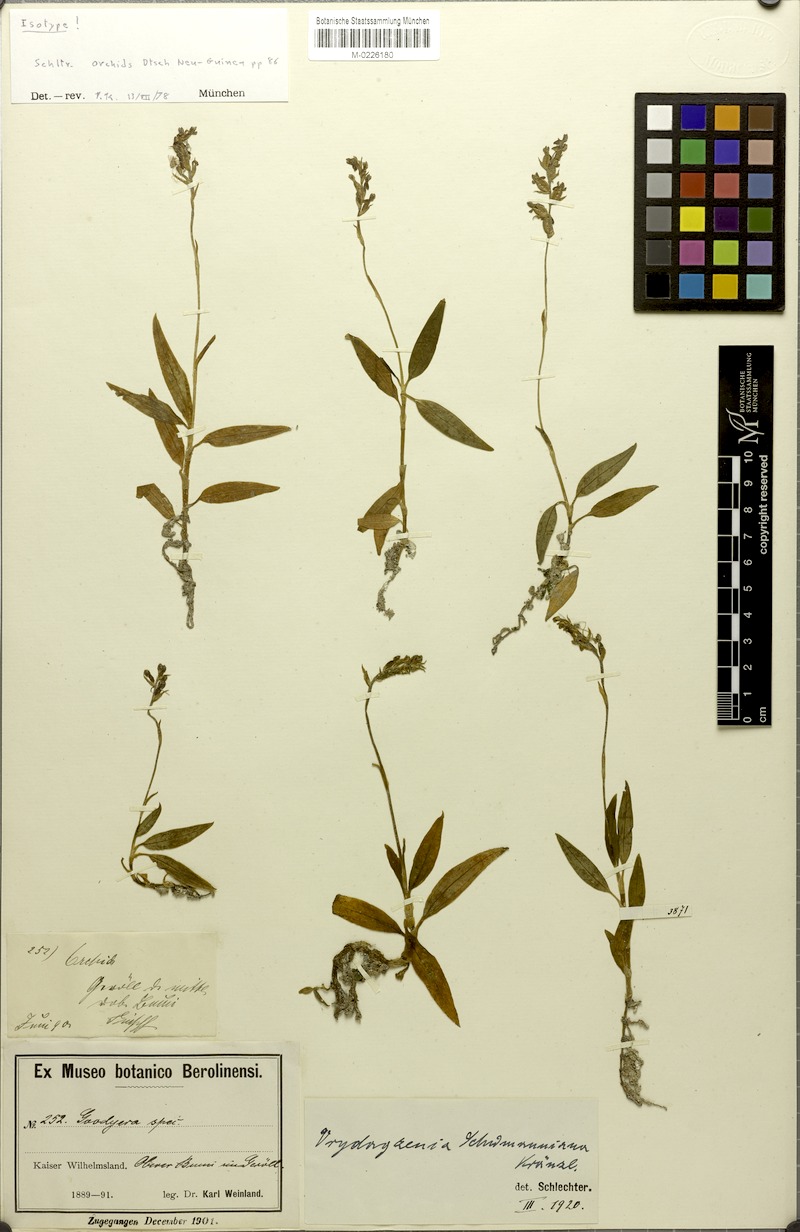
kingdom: Plantae
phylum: Tracheophyta
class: Liliopsida
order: Asparagales
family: Orchidaceae
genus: Vrydagzynea
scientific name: Vrydagzynea schumanniana
